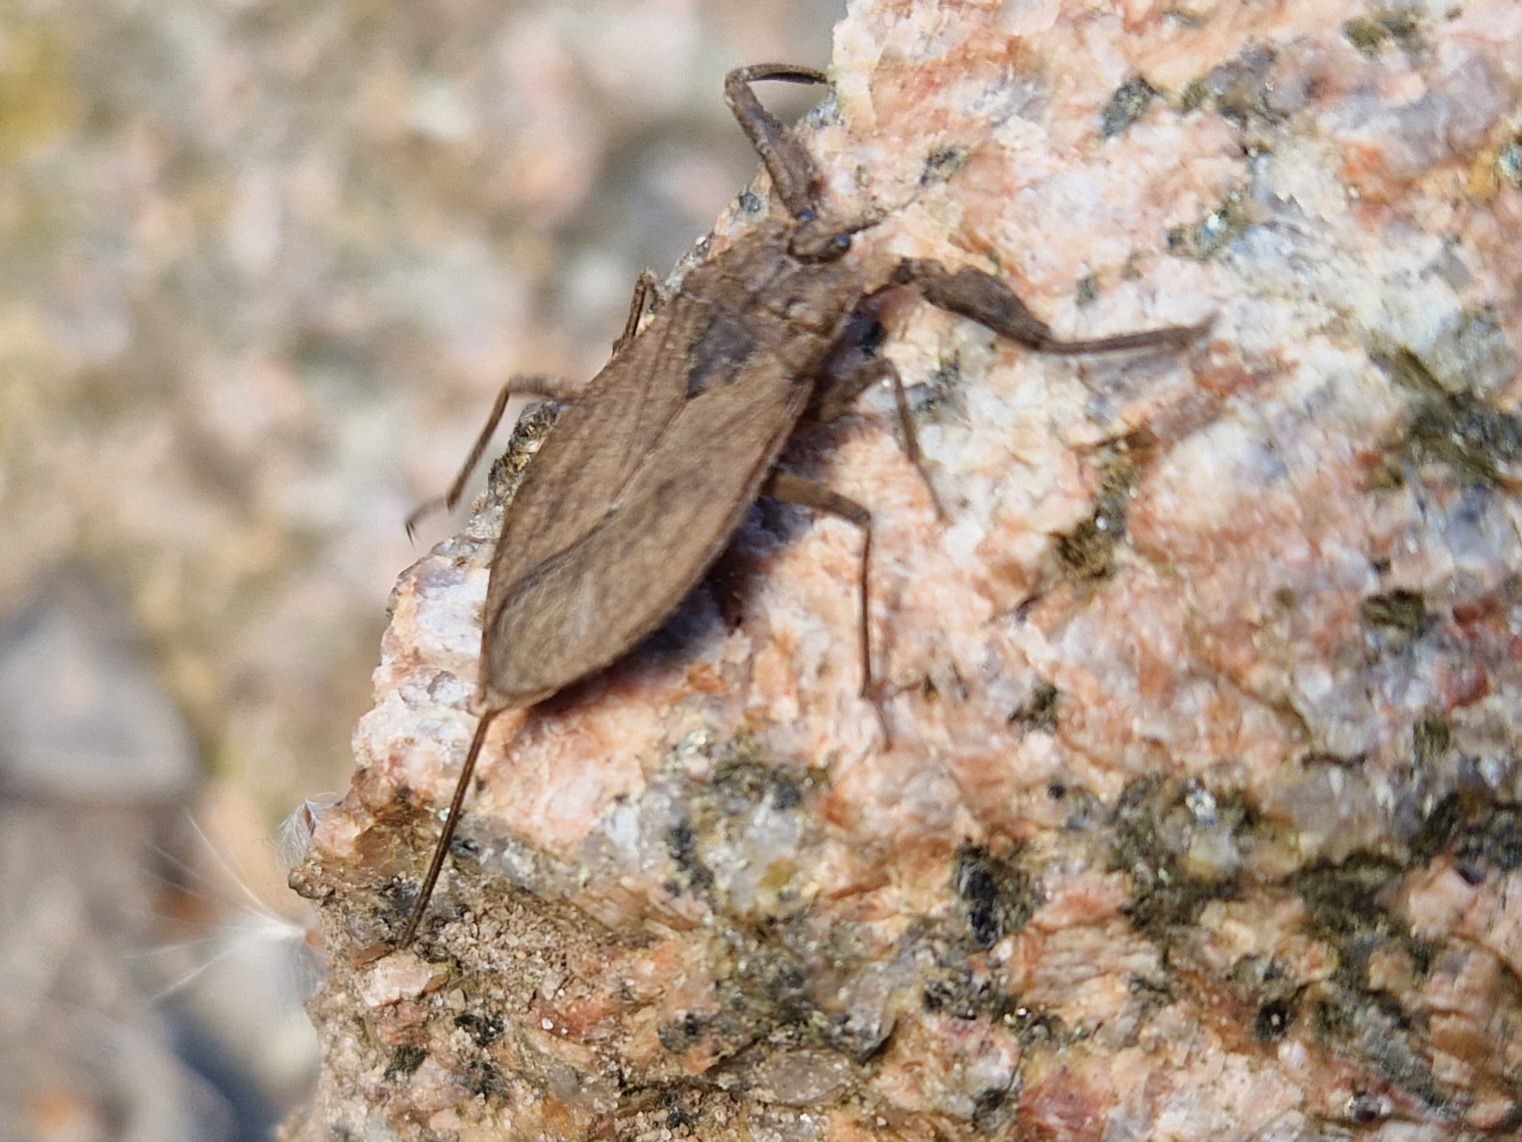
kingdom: Animalia
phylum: Arthropoda
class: Insecta
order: Hemiptera
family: Nepidae
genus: Nepa
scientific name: Nepa cinerea
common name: Skorpiontæge
